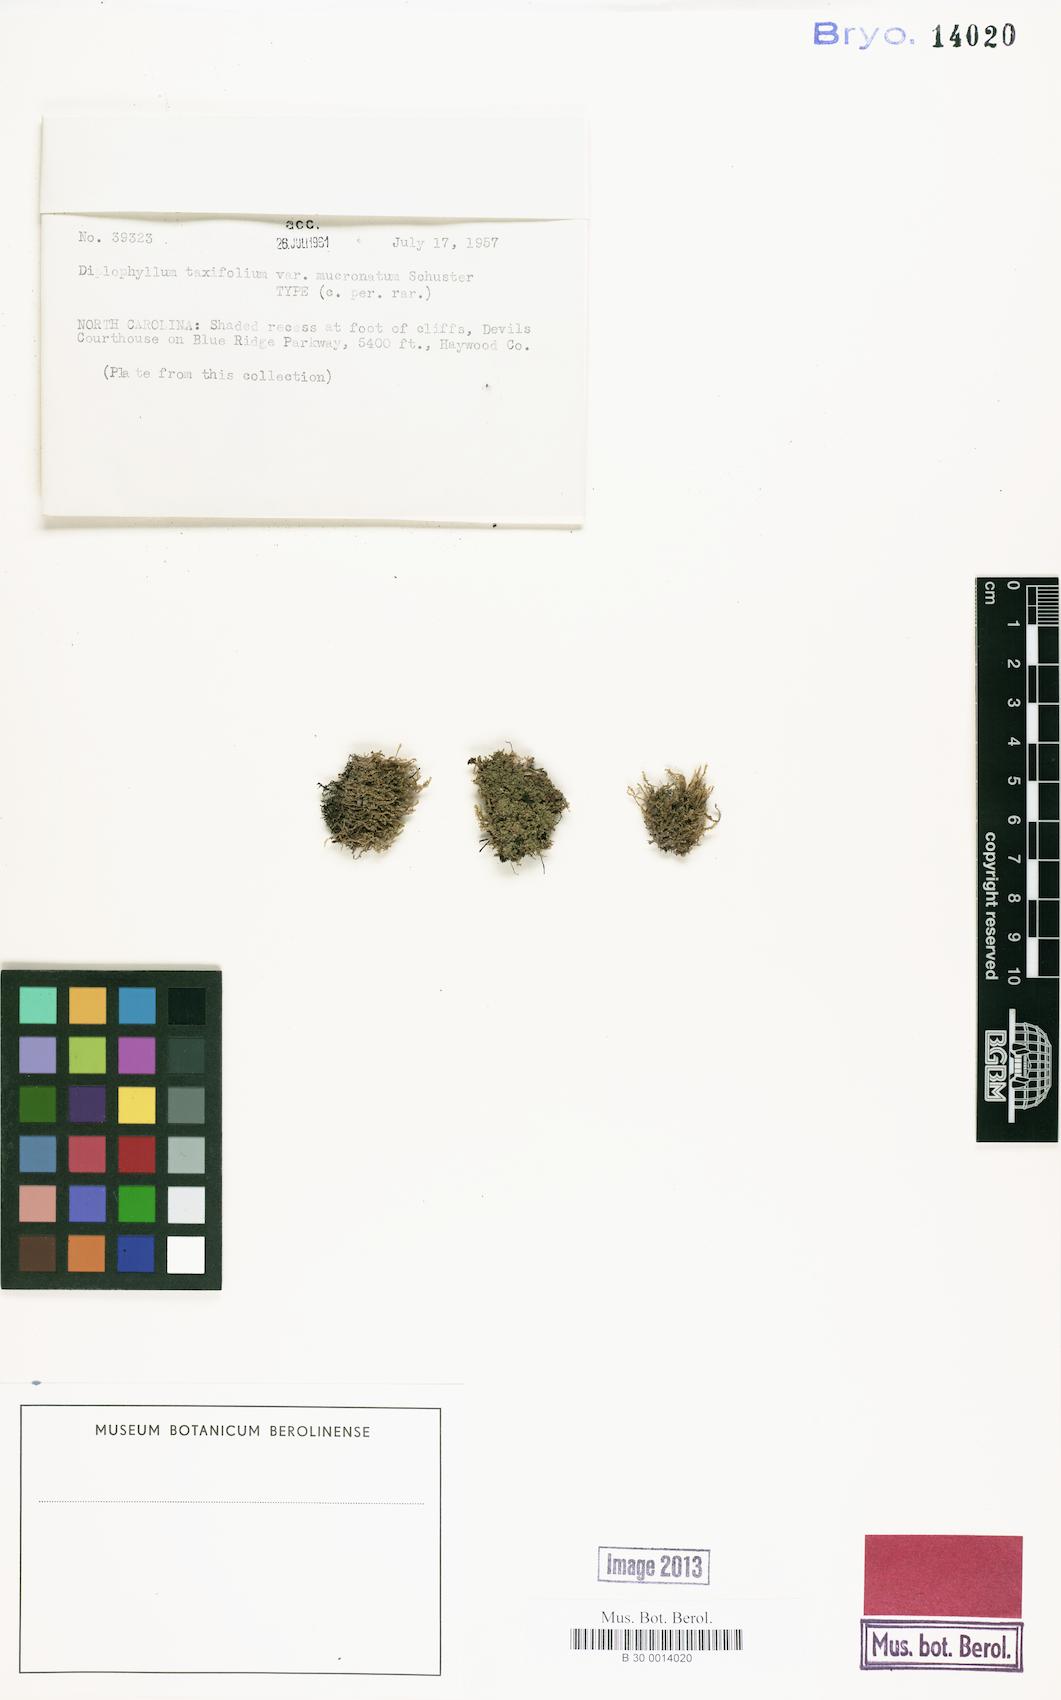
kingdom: Plantae
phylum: Marchantiophyta
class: Jungermanniopsida
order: Jungermanniales
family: Scapaniaceae
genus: Diplophyllum
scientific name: Diplophyllum taxifolium
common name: Alpine earwort
